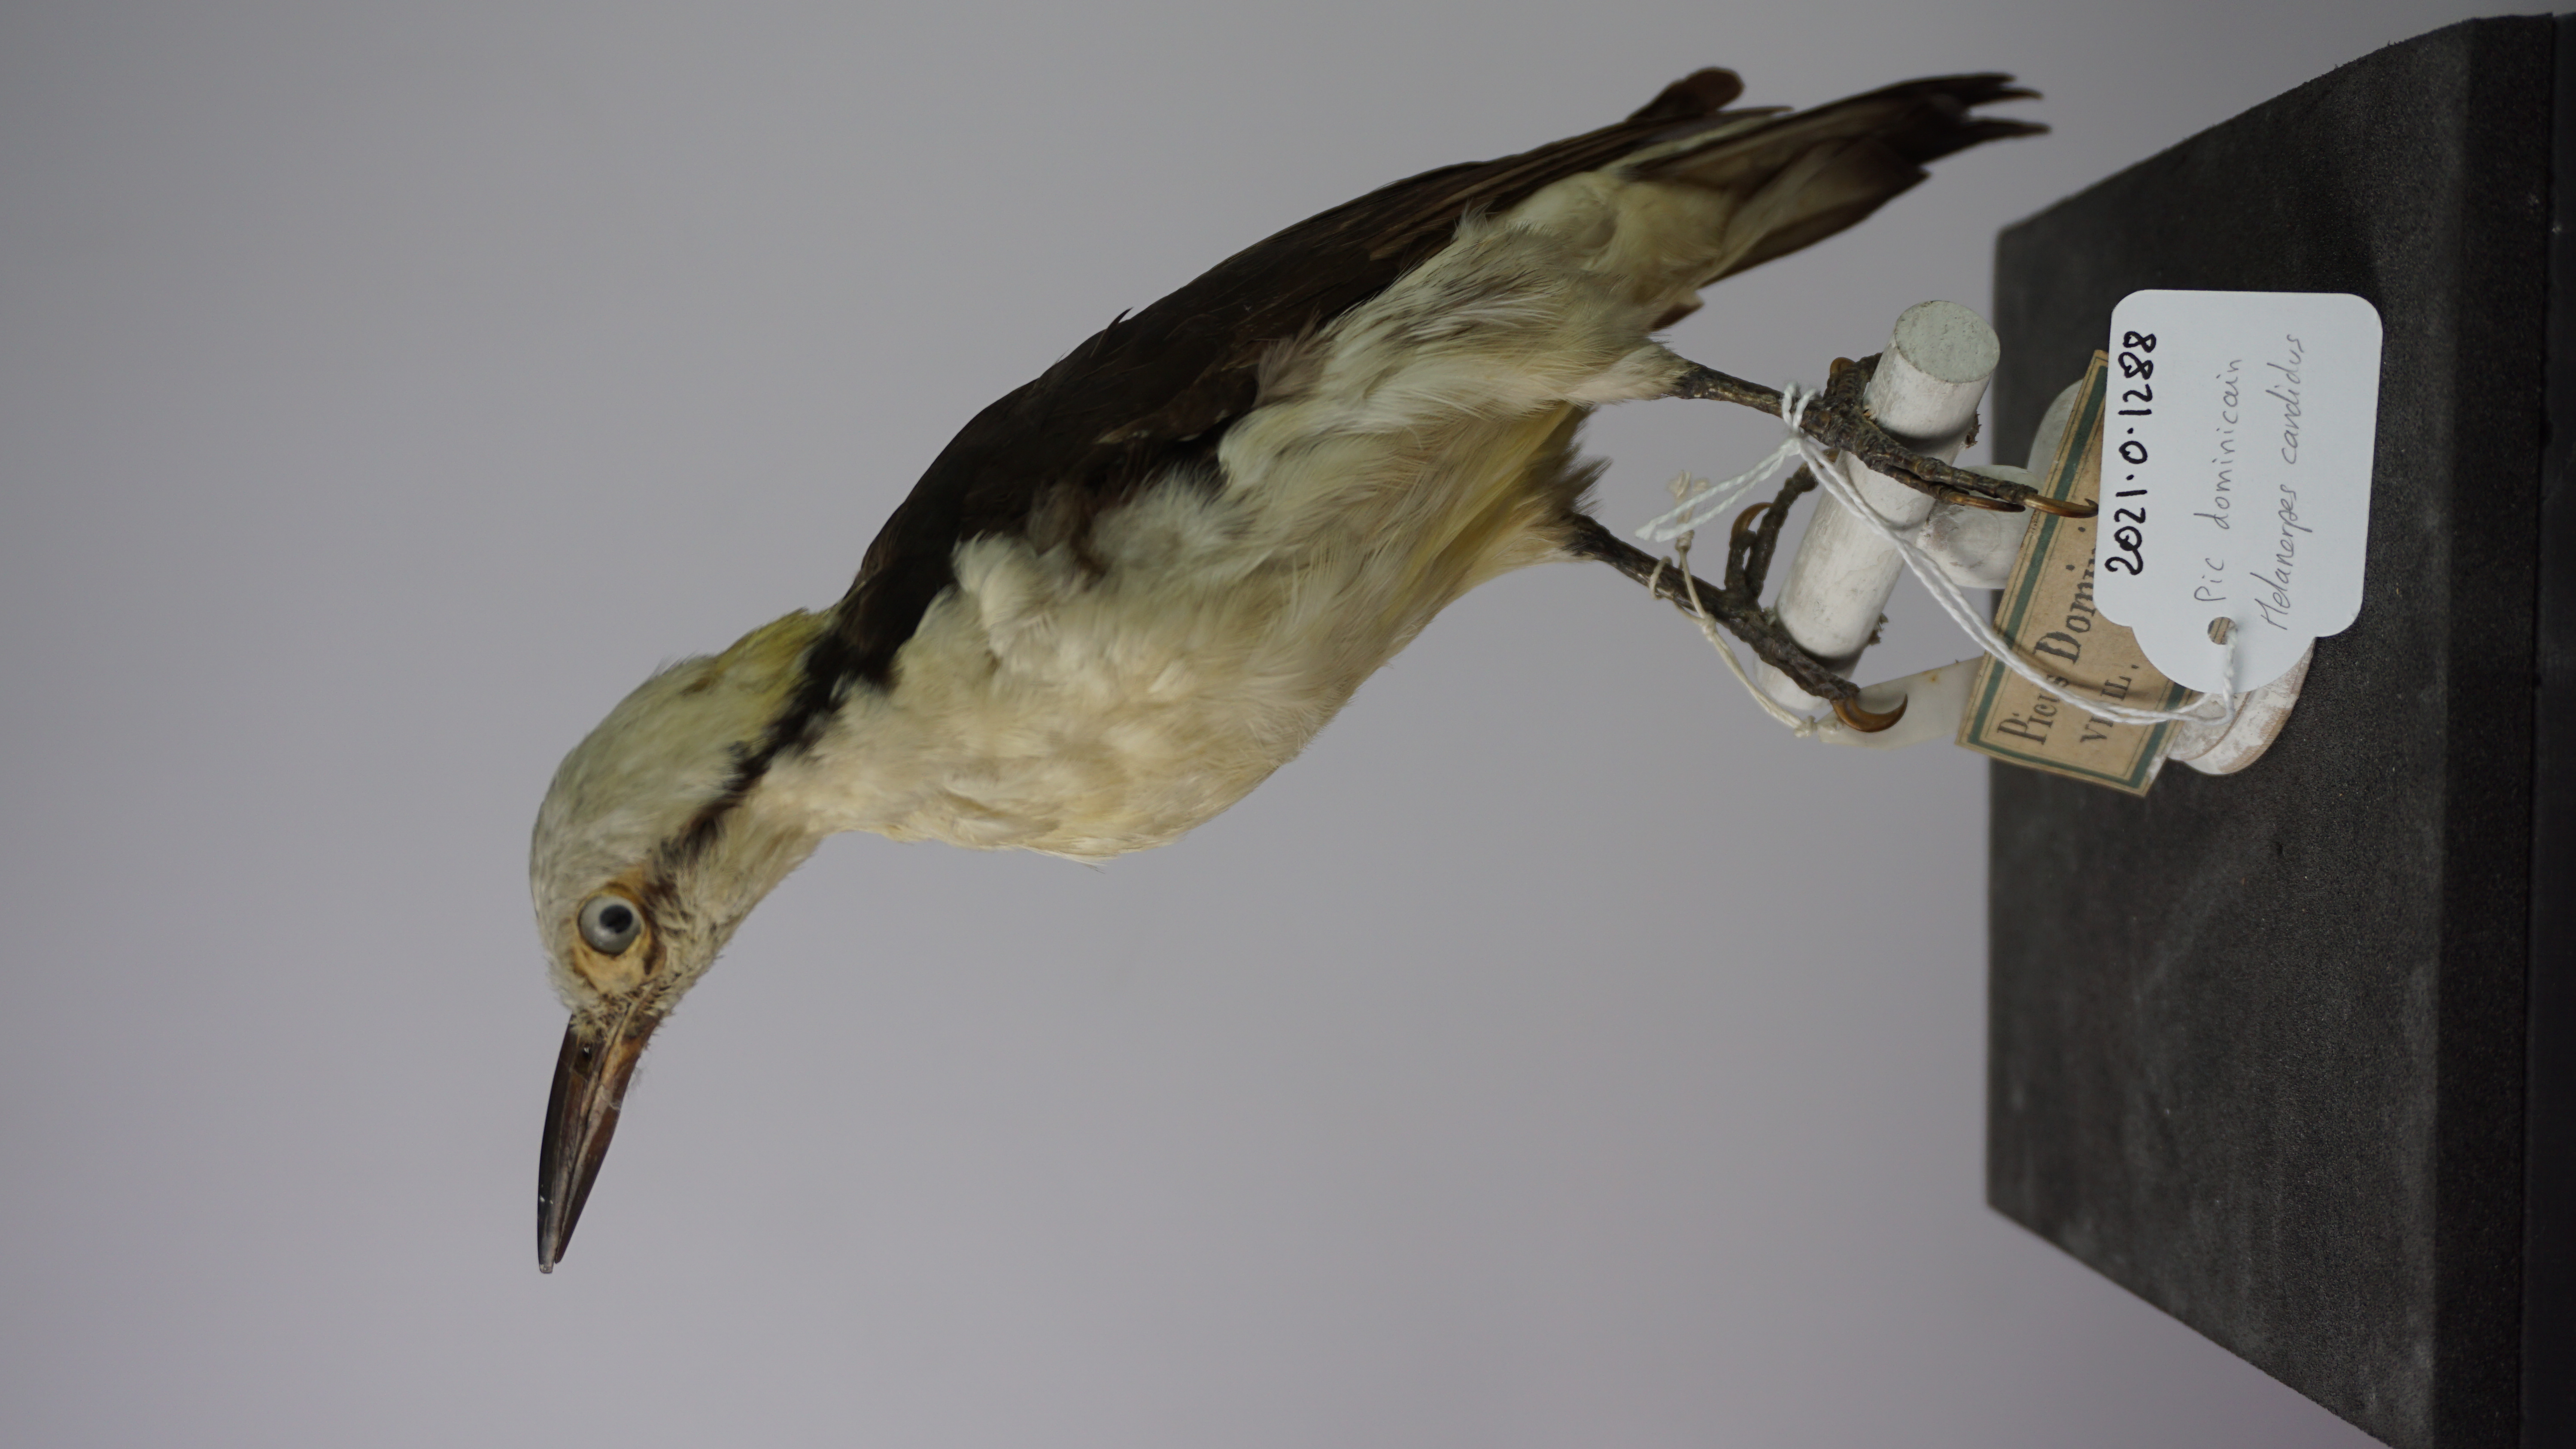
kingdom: Animalia
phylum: Chordata
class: Aves
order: Piciformes
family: Picidae
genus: Melanerpes
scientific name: Melanerpes candidus
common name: White woodpecker
